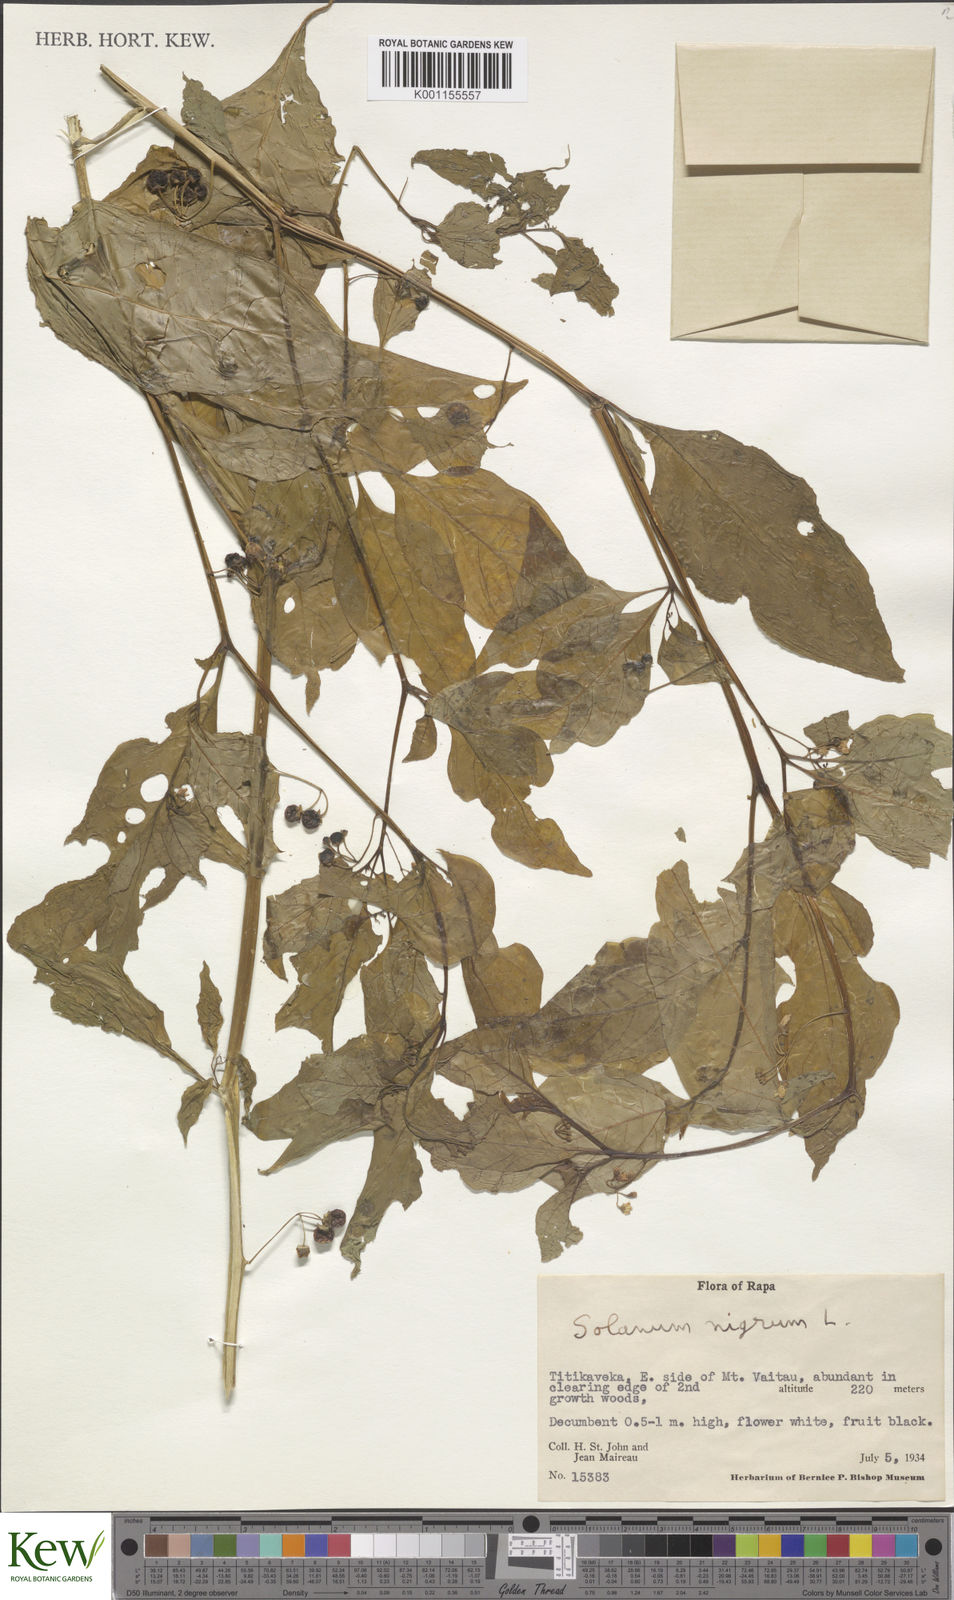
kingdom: Plantae
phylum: Tracheophyta
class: Magnoliopsida
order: Solanales
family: Solanaceae
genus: Solanum
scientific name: Solanum americanum
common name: American black nightshade
